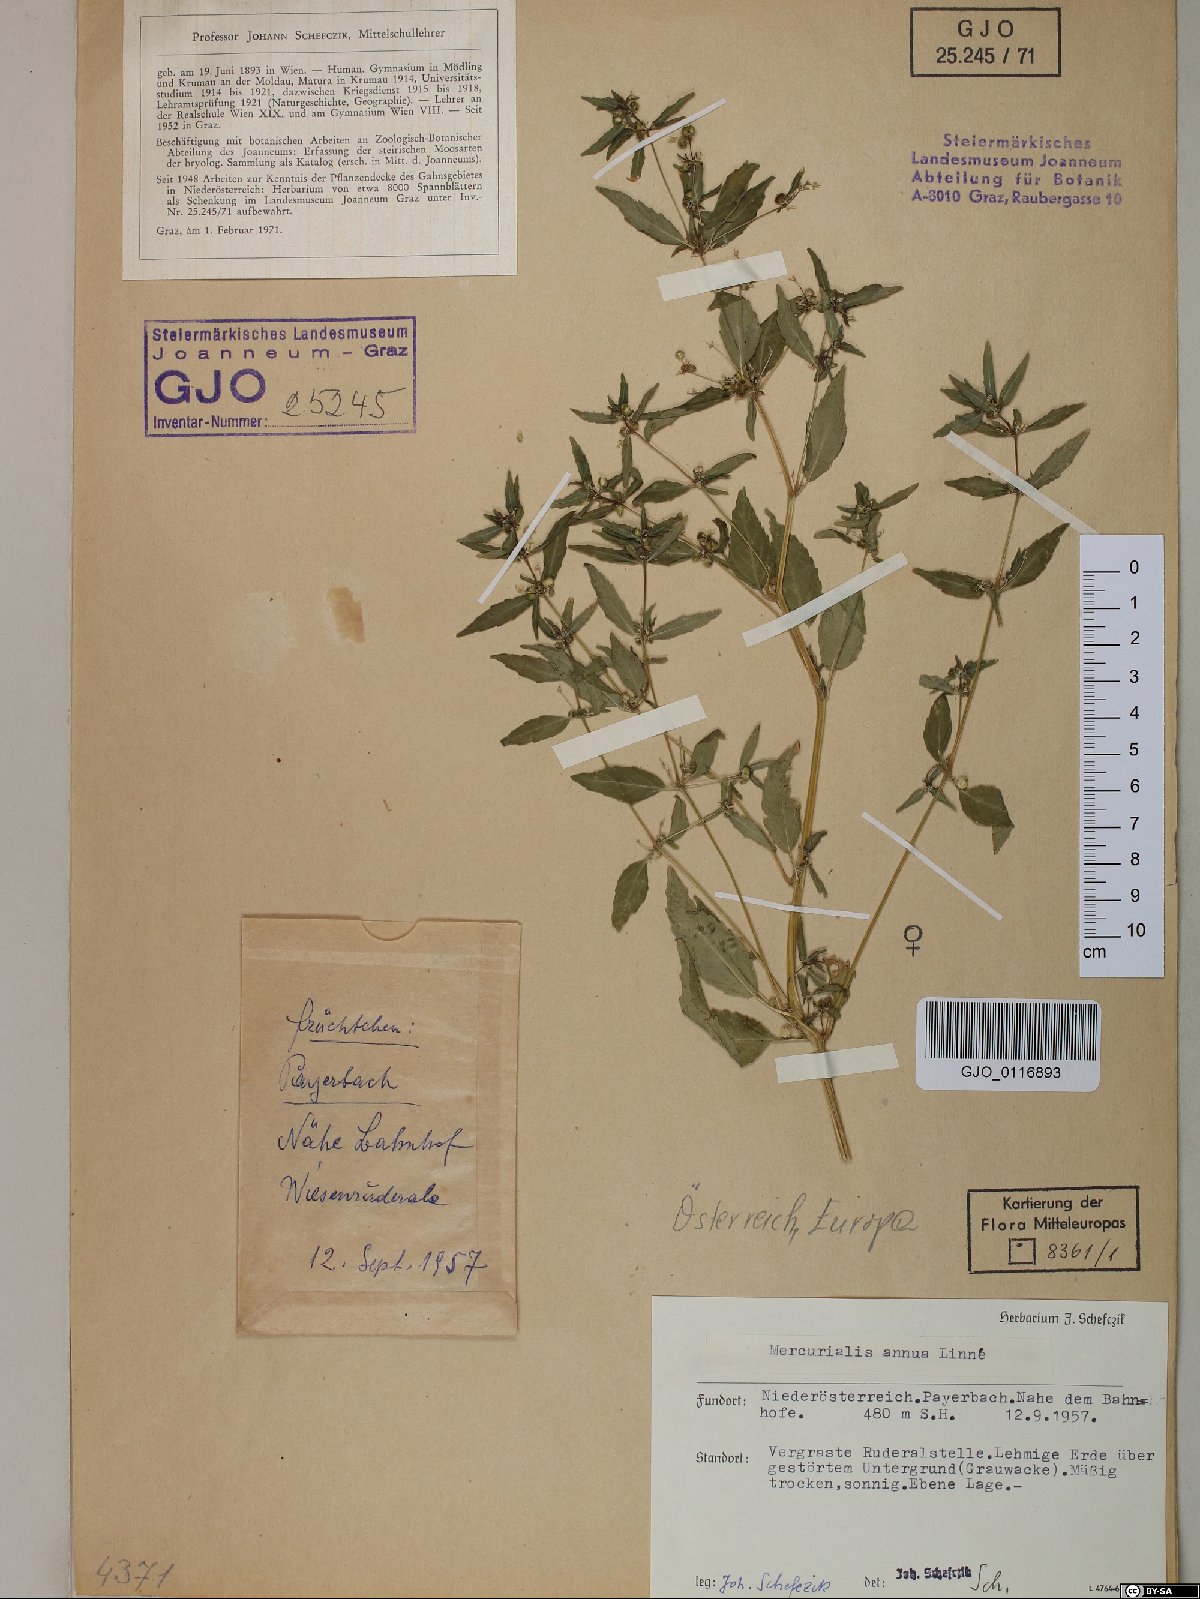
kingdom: Plantae
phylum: Tracheophyta
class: Magnoliopsida
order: Malpighiales
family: Euphorbiaceae
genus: Mercurialis
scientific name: Mercurialis annua
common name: Annual mercury
